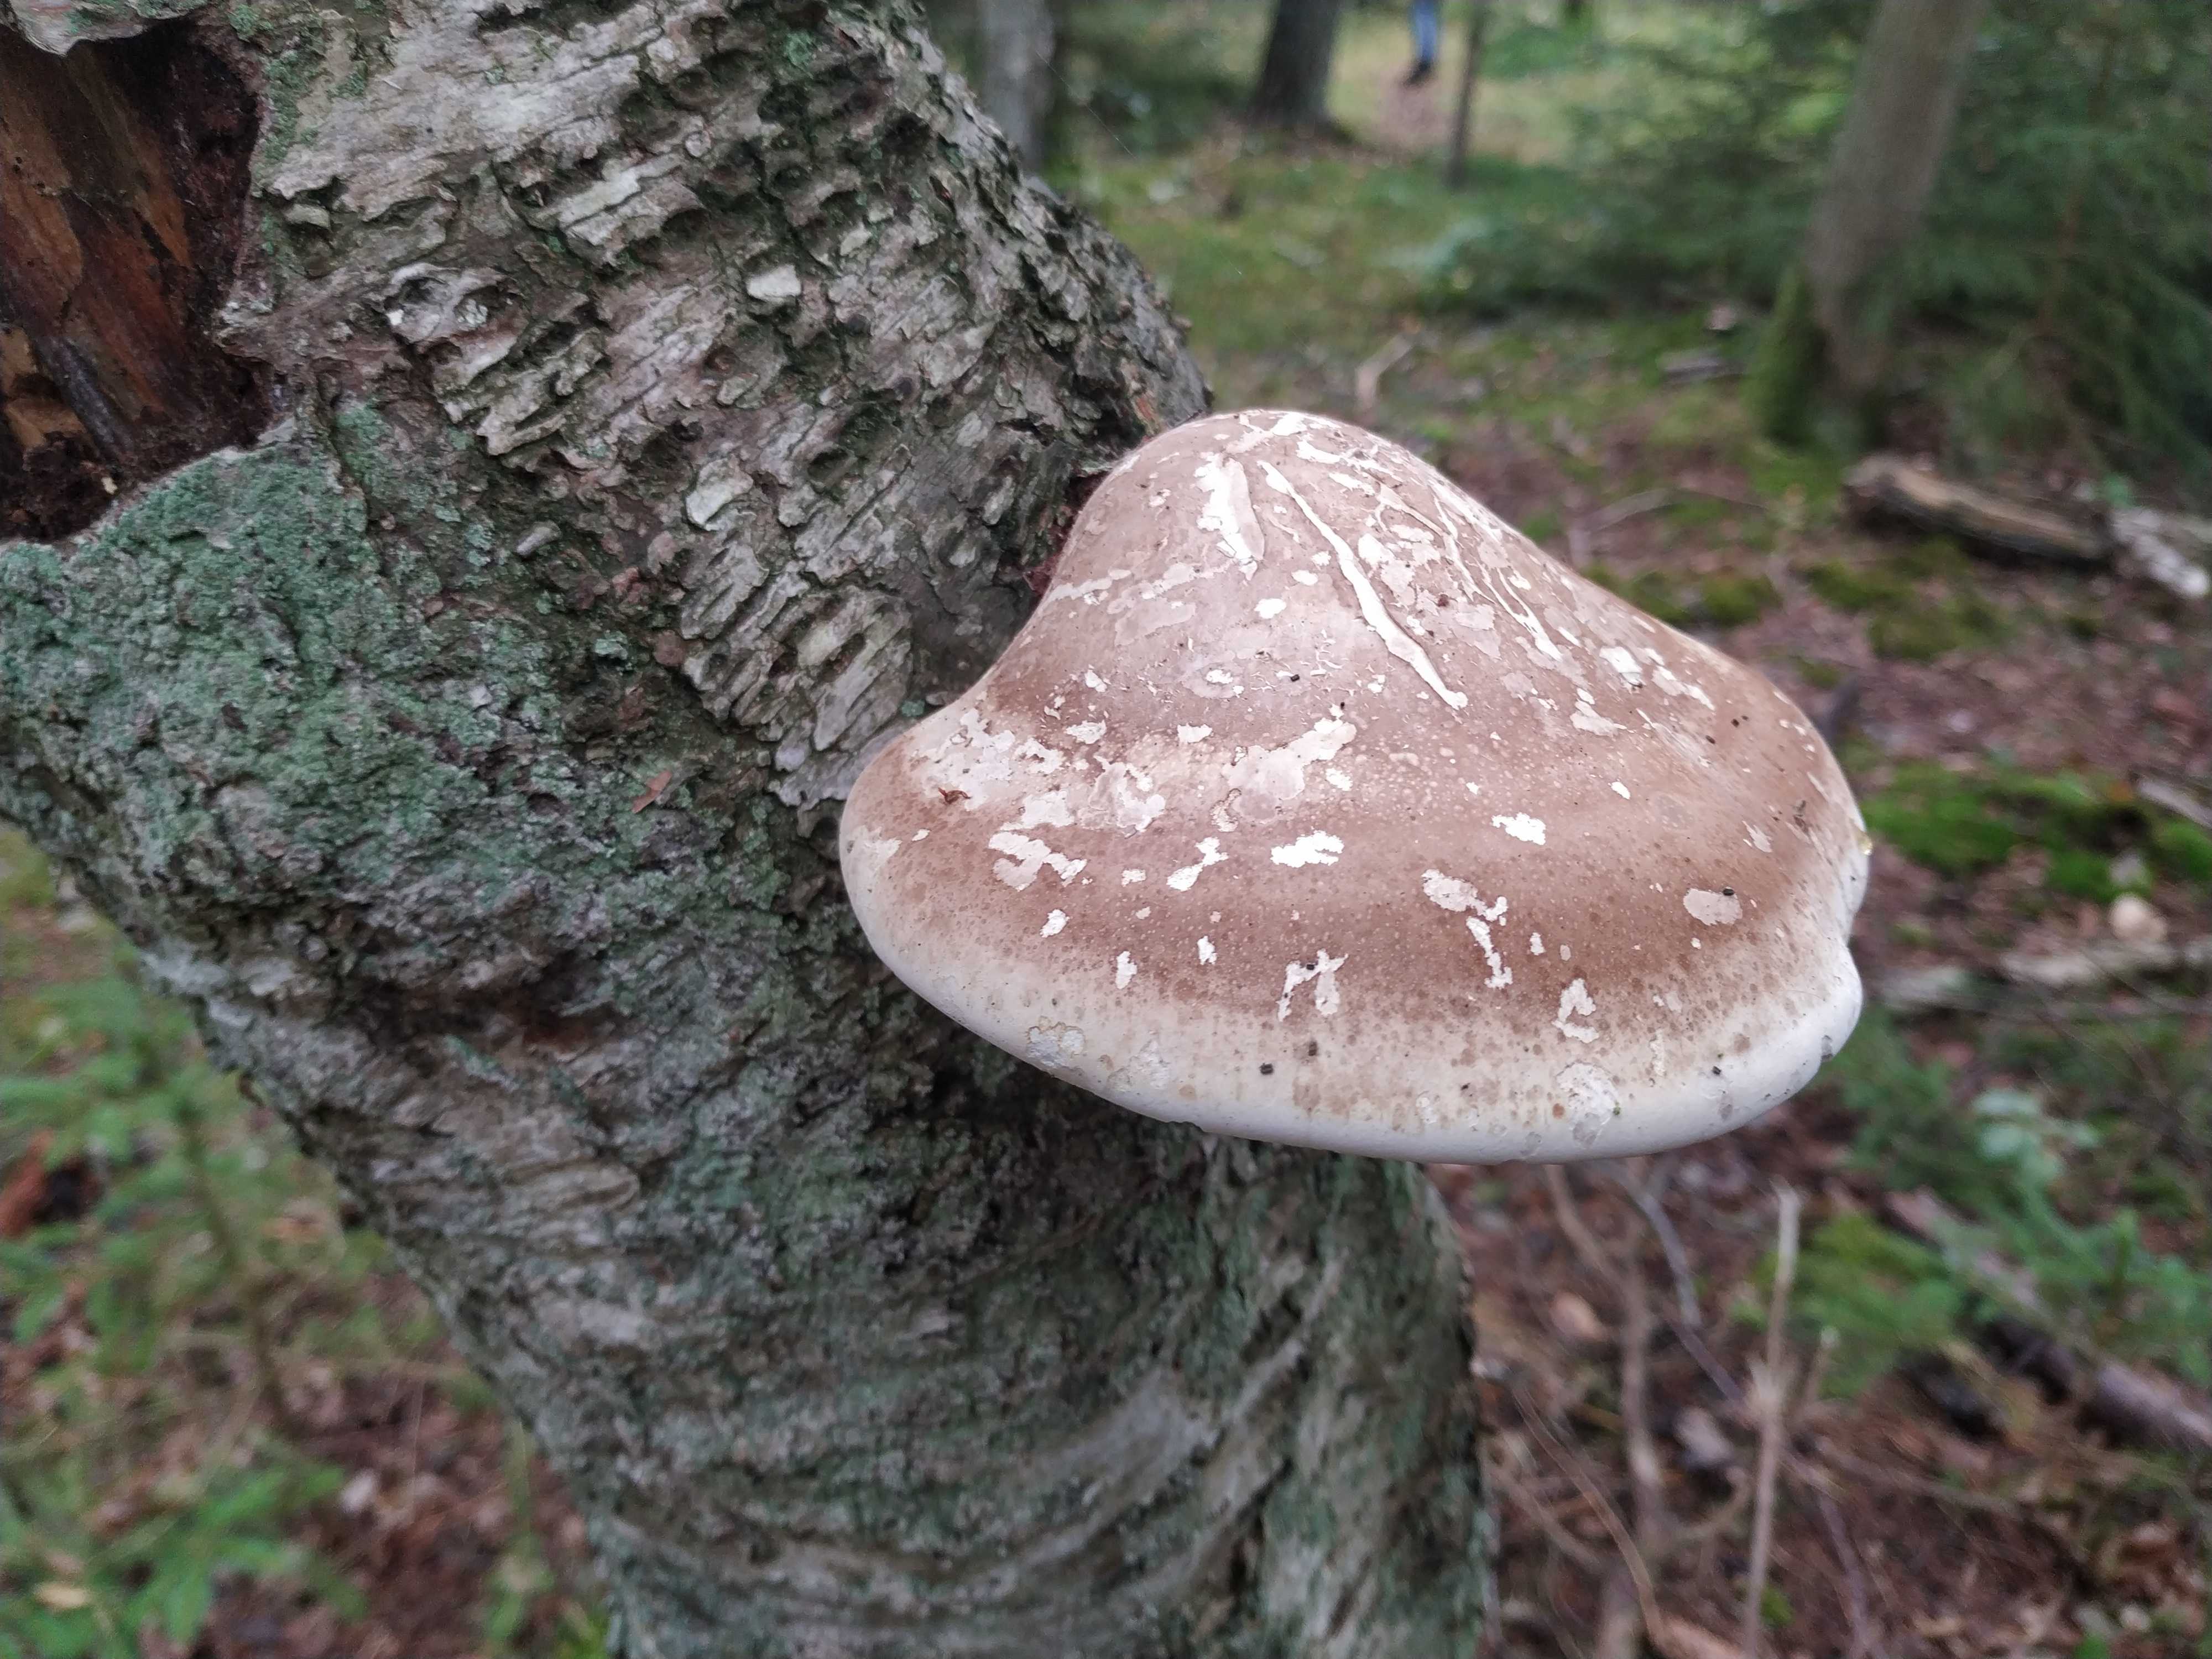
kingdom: Fungi
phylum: Basidiomycota
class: Agaricomycetes
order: Polyporales
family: Fomitopsidaceae
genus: Fomitopsis
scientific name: Fomitopsis betulina
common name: birkeporesvamp
